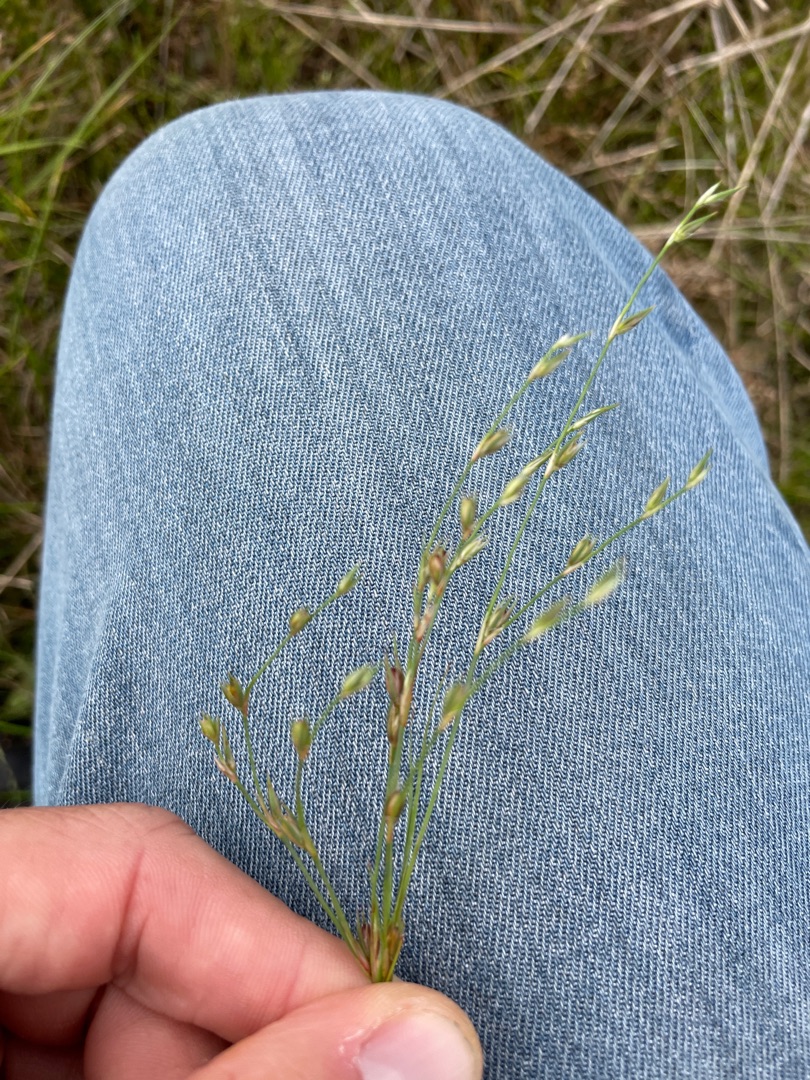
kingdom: Plantae
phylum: Tracheophyta
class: Liliopsida
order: Poales
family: Juncaceae
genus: Juncus
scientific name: Juncus bufonius
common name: Tudse-siv
